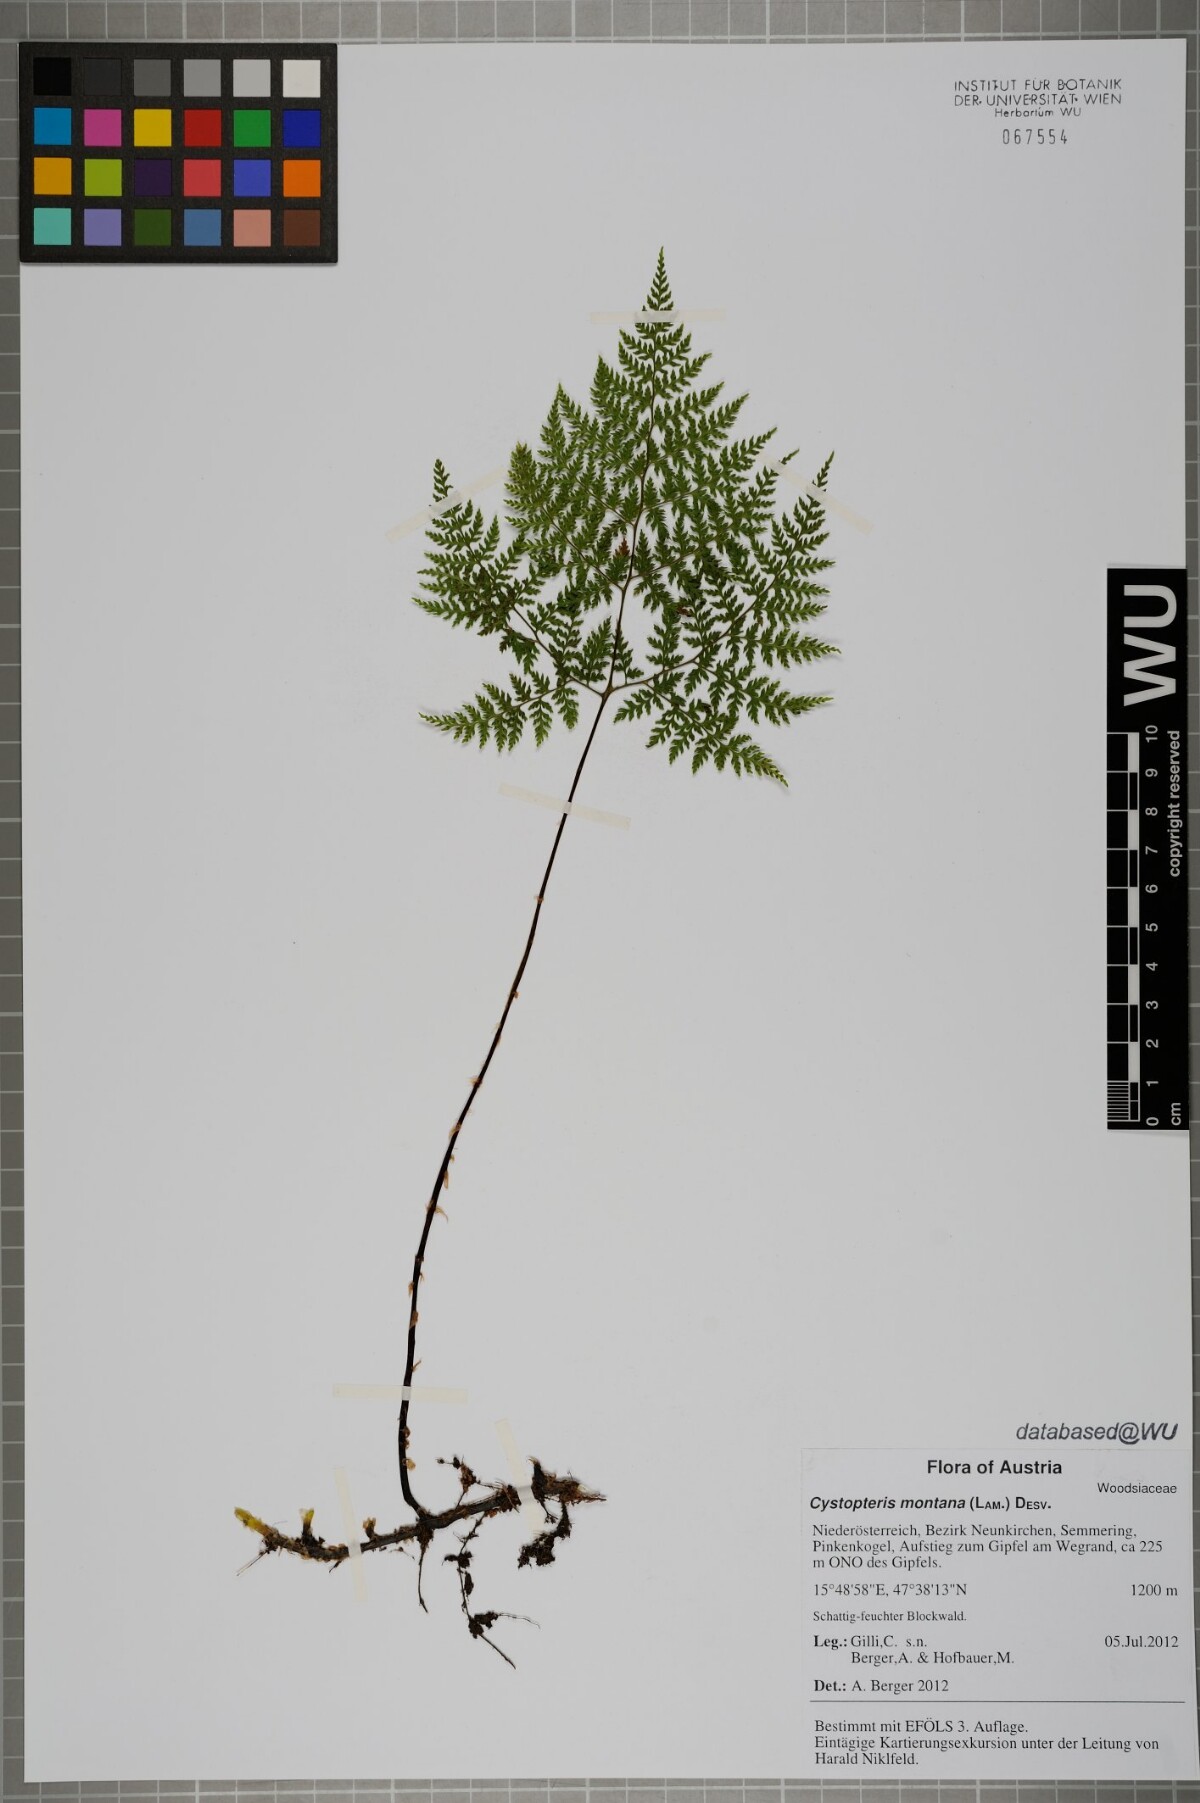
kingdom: Plantae
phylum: Tracheophyta
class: Polypodiopsida
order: Polypodiales
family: Cystopteridaceae
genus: Cystopteris
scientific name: Cystopteris montana
